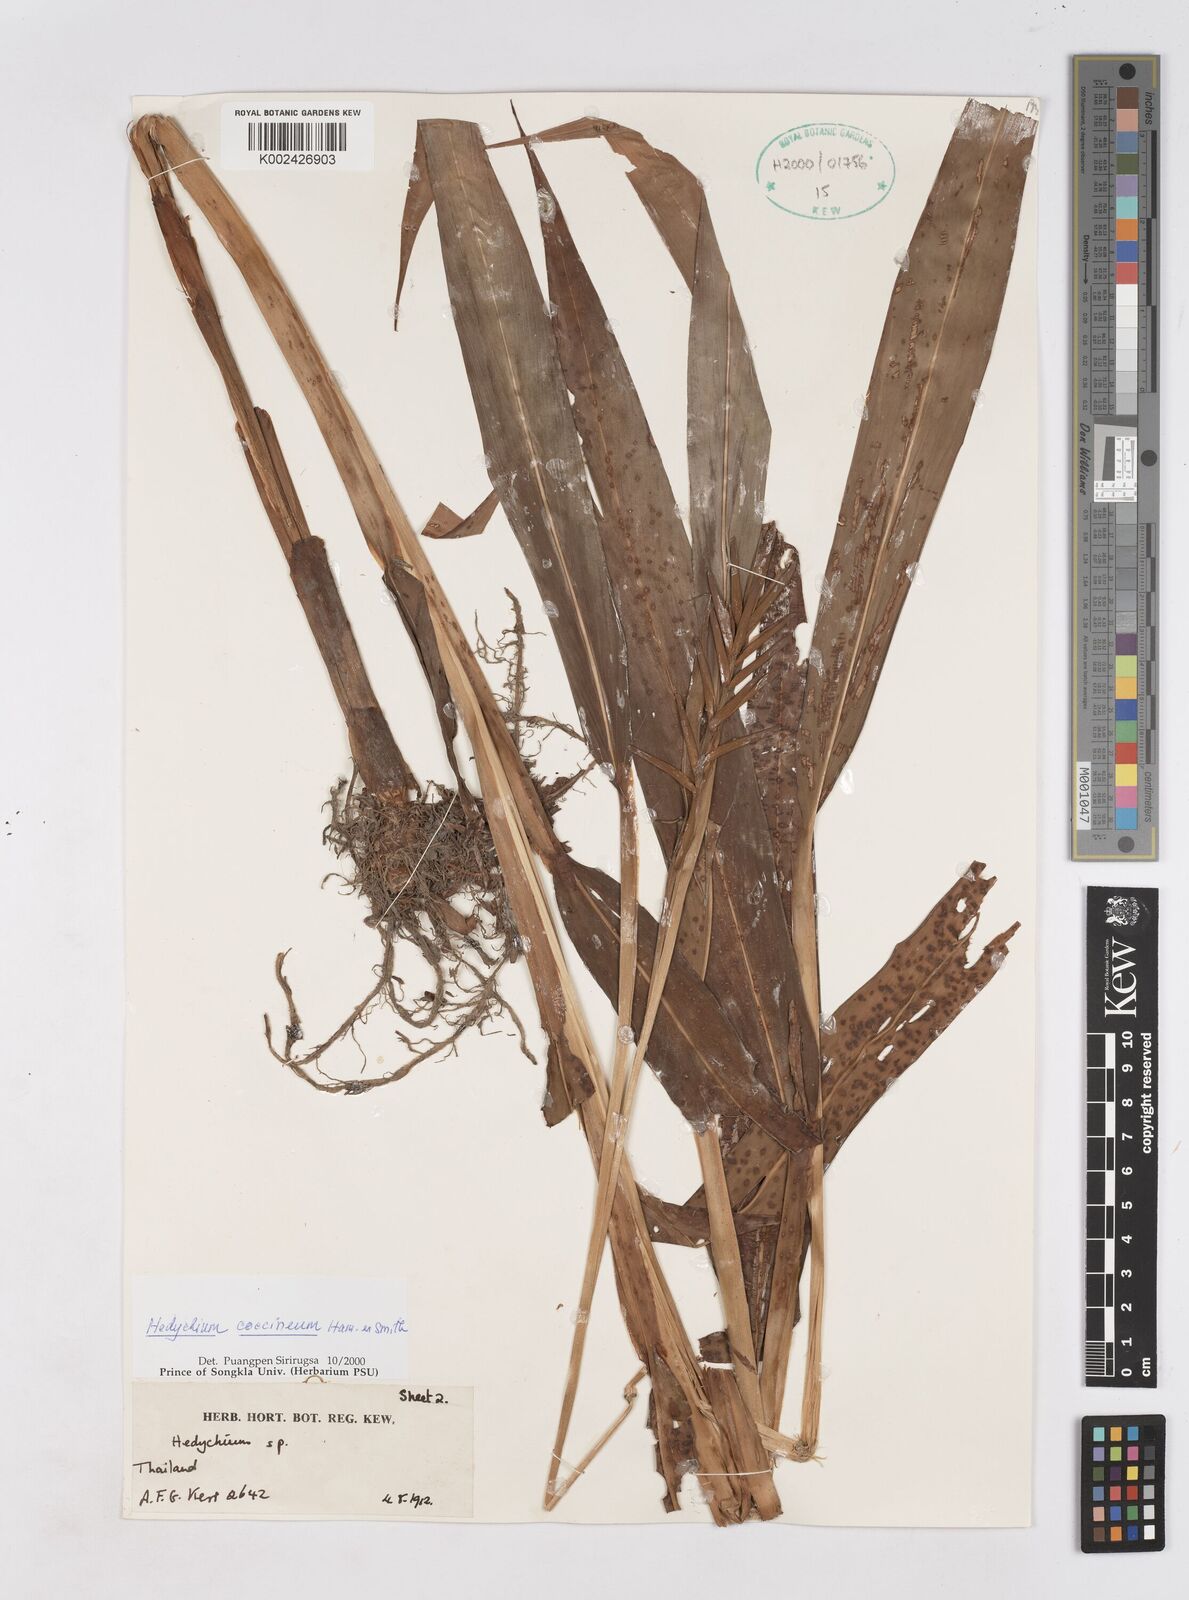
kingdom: Plantae
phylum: Tracheophyta
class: Liliopsida
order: Zingiberales
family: Zingiberaceae
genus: Hedychium
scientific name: Hedychium coccineum
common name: Red ginger-lily
